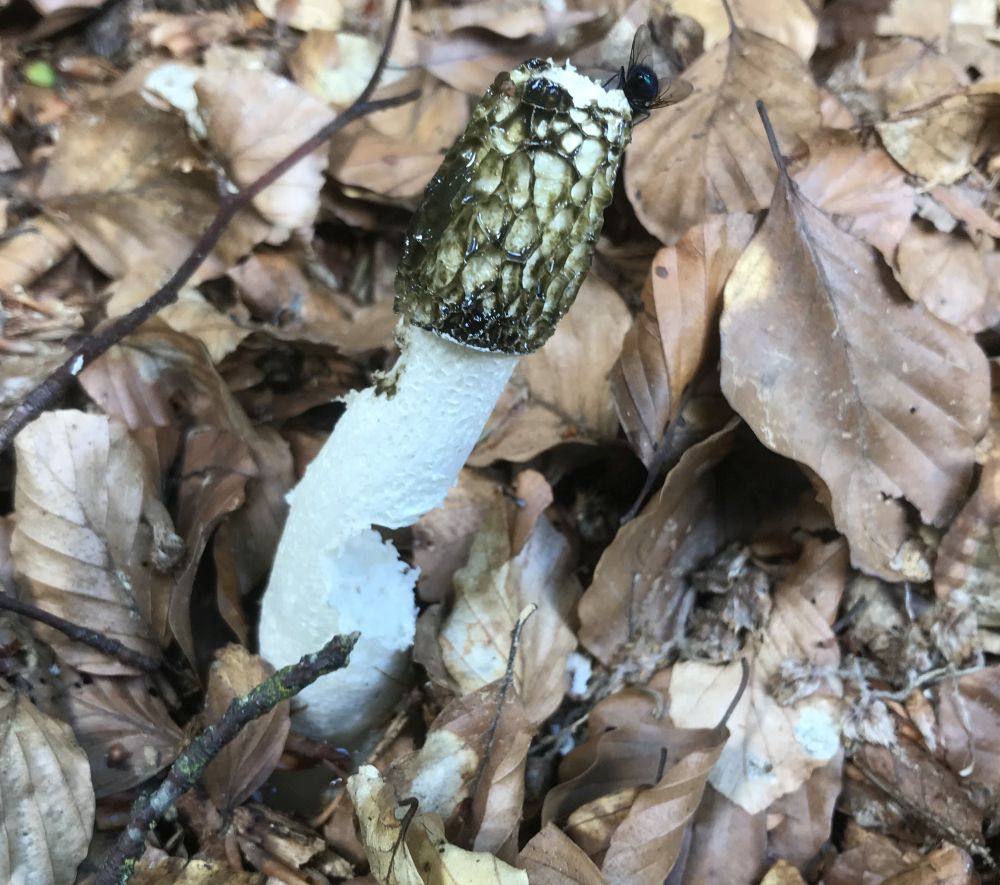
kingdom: Fungi
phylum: Basidiomycota
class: Agaricomycetes
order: Phallales
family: Phallaceae
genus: Phallus
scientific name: Phallus impudicus
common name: almindelig stinksvamp
